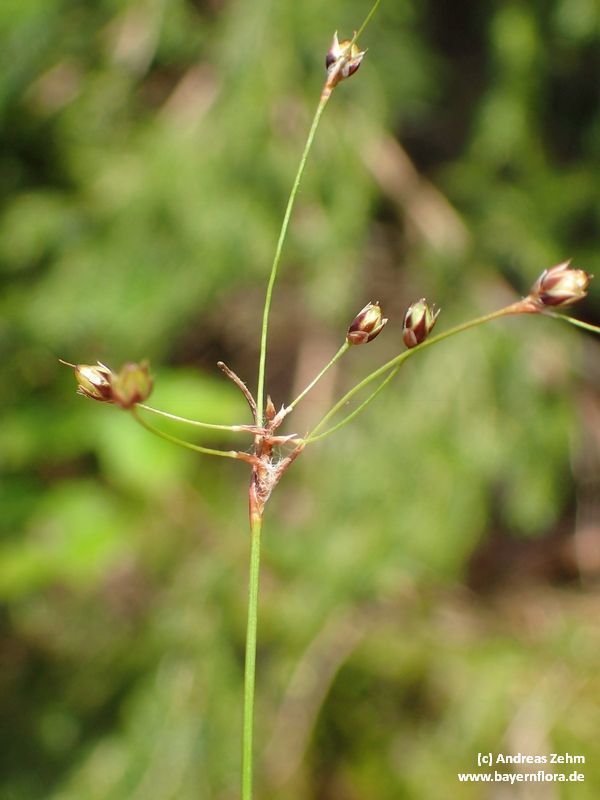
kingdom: Plantae
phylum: Tracheophyta
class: Liliopsida
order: Poales
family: Juncaceae
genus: Luzula
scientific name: Luzula luzulina
